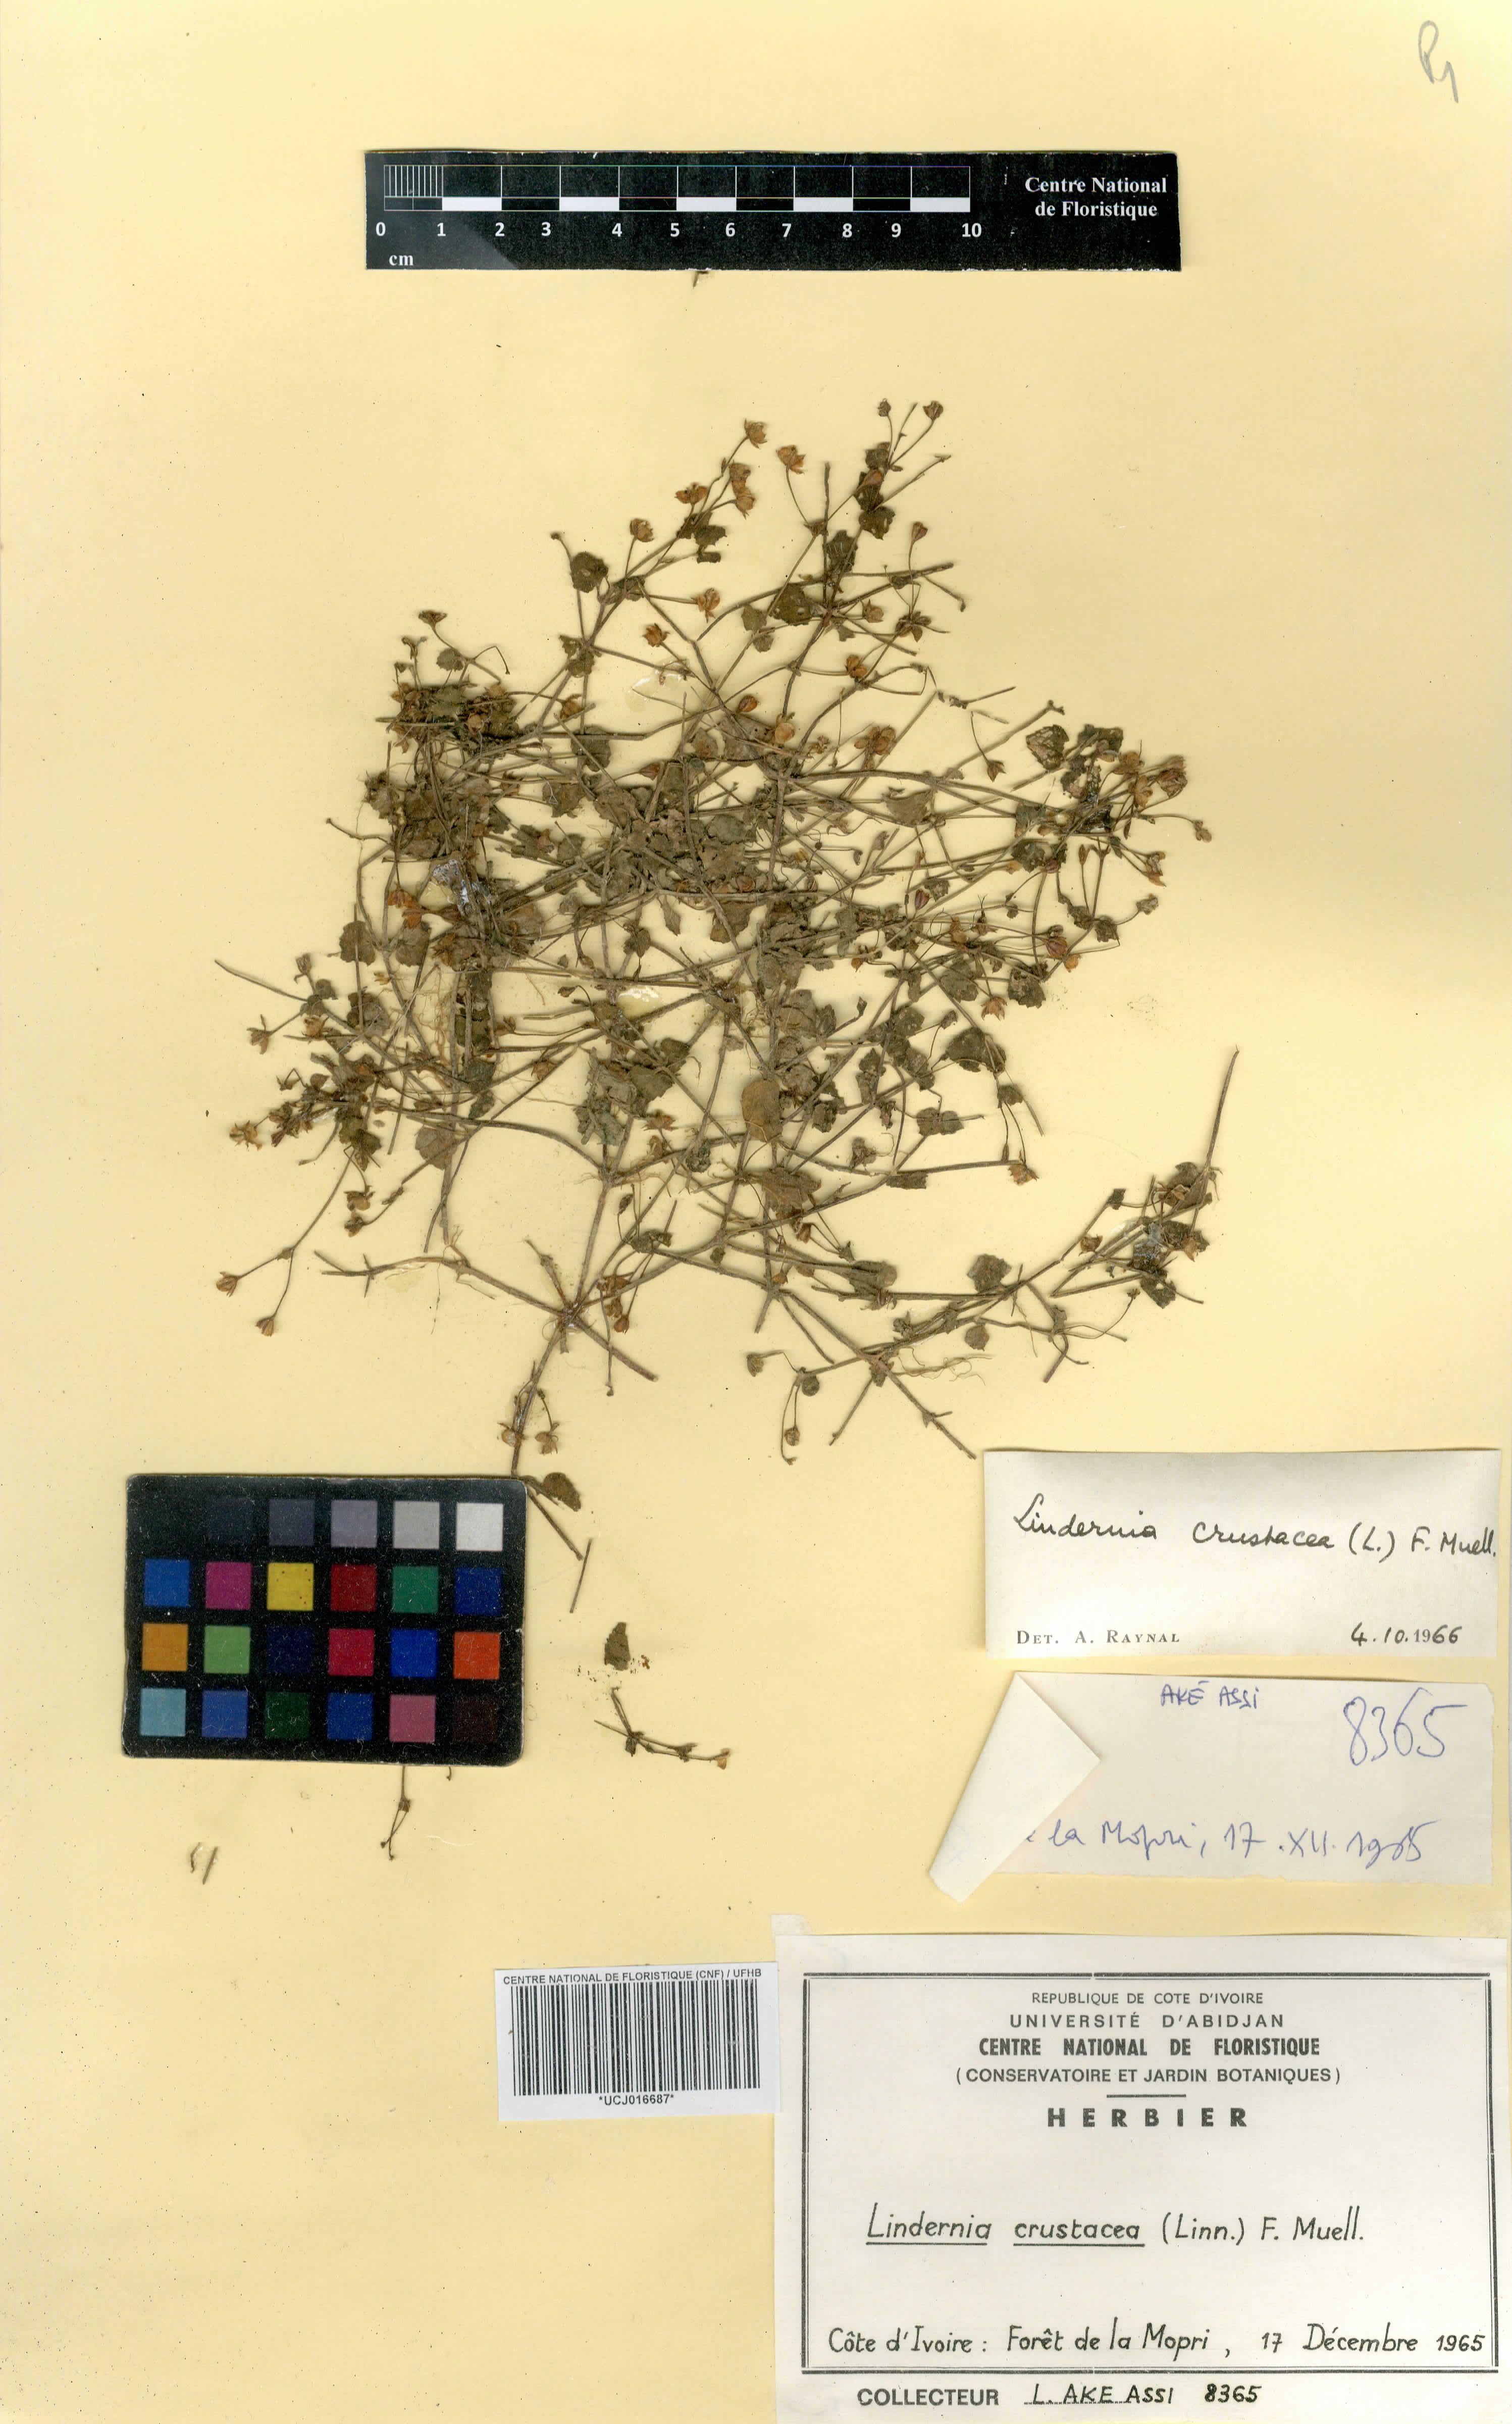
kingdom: Plantae
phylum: Tracheophyta
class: Magnoliopsida
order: Lamiales
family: Linderniaceae
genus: Torenia
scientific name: Torenia crustacea
